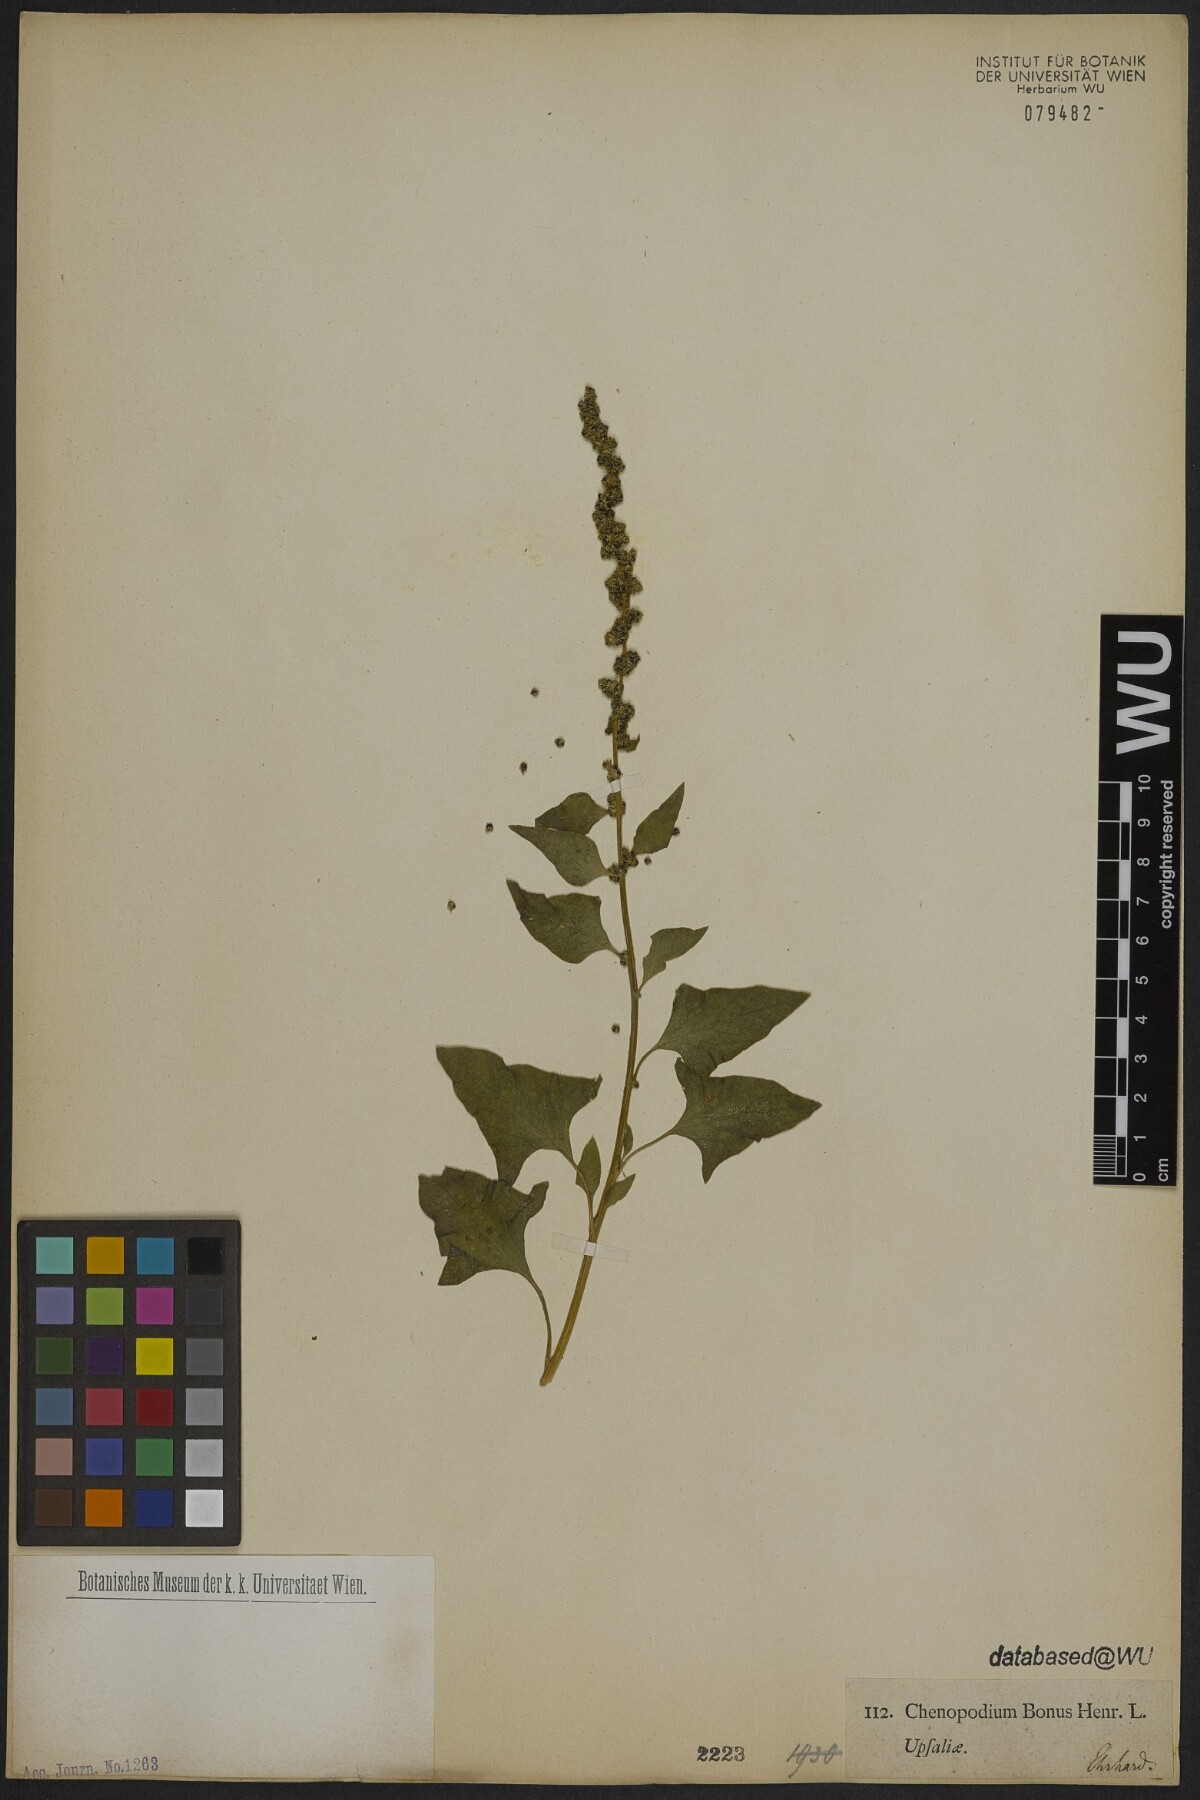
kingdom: Plantae
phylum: Tracheophyta
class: Magnoliopsida
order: Caryophyllales
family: Amaranthaceae
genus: Blitum
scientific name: Blitum bonus-henricus
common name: Good king henry
